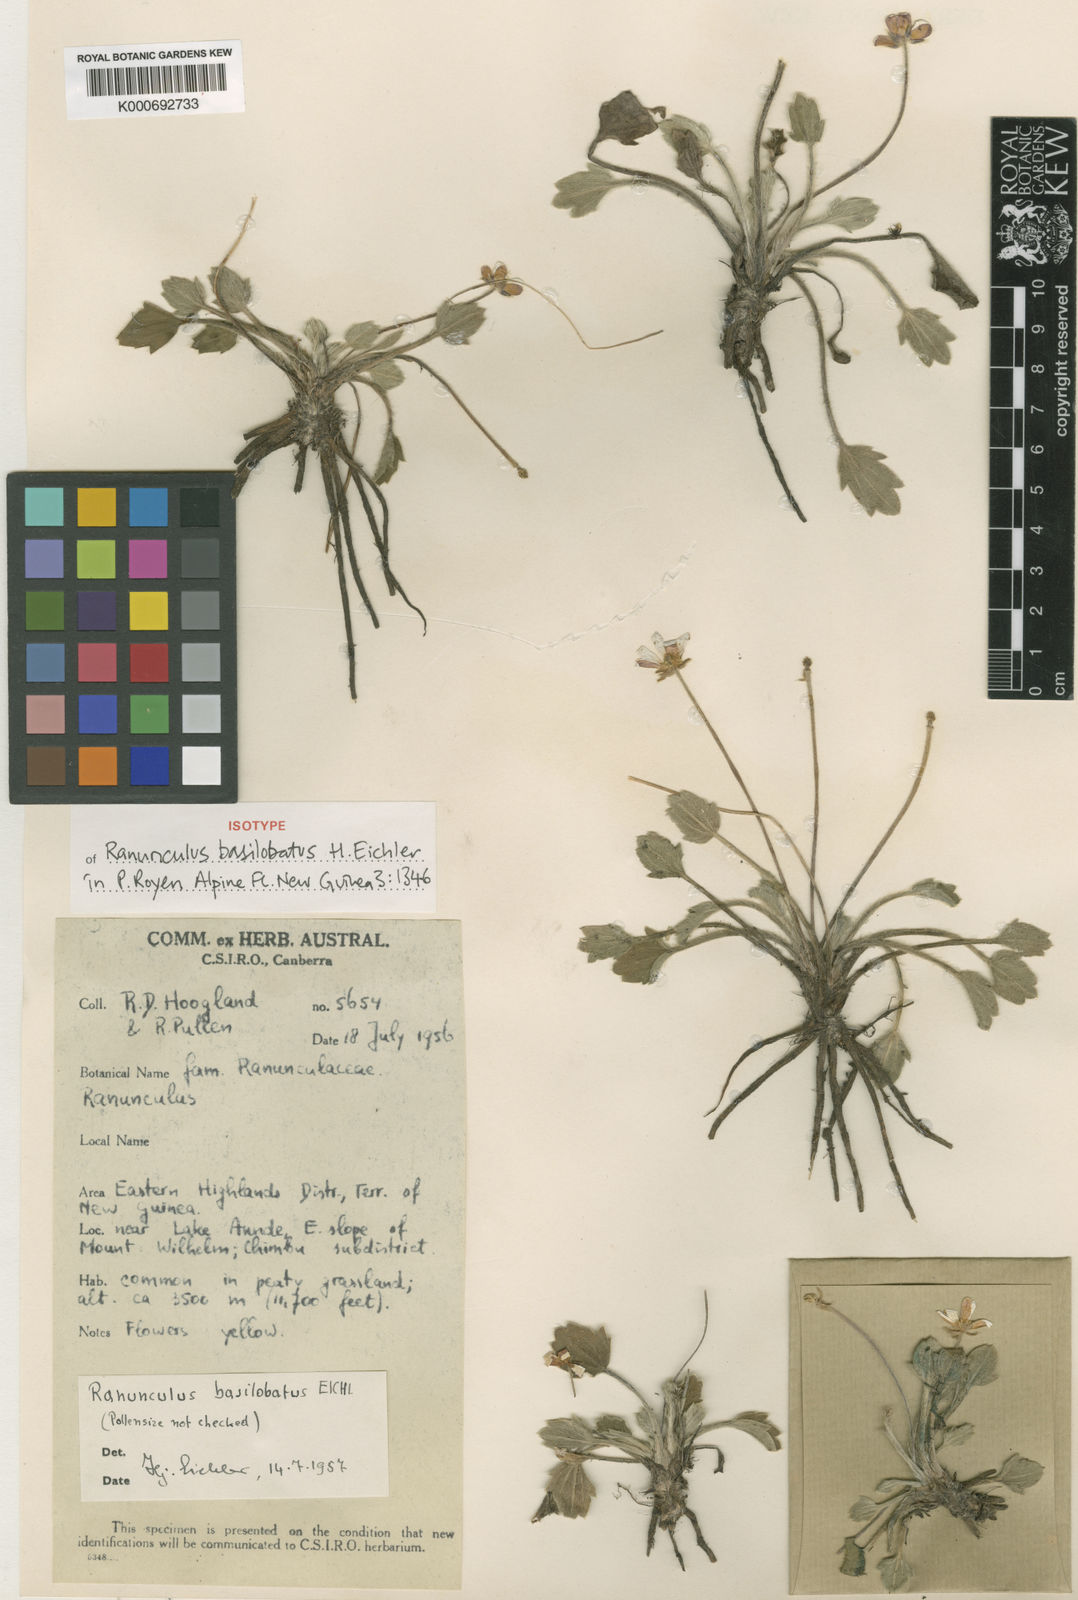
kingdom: Plantae
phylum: Tracheophyta
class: Magnoliopsida
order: Ranunculales
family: Ranunculaceae
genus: Ranunculus
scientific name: Ranunculus basilobatus
